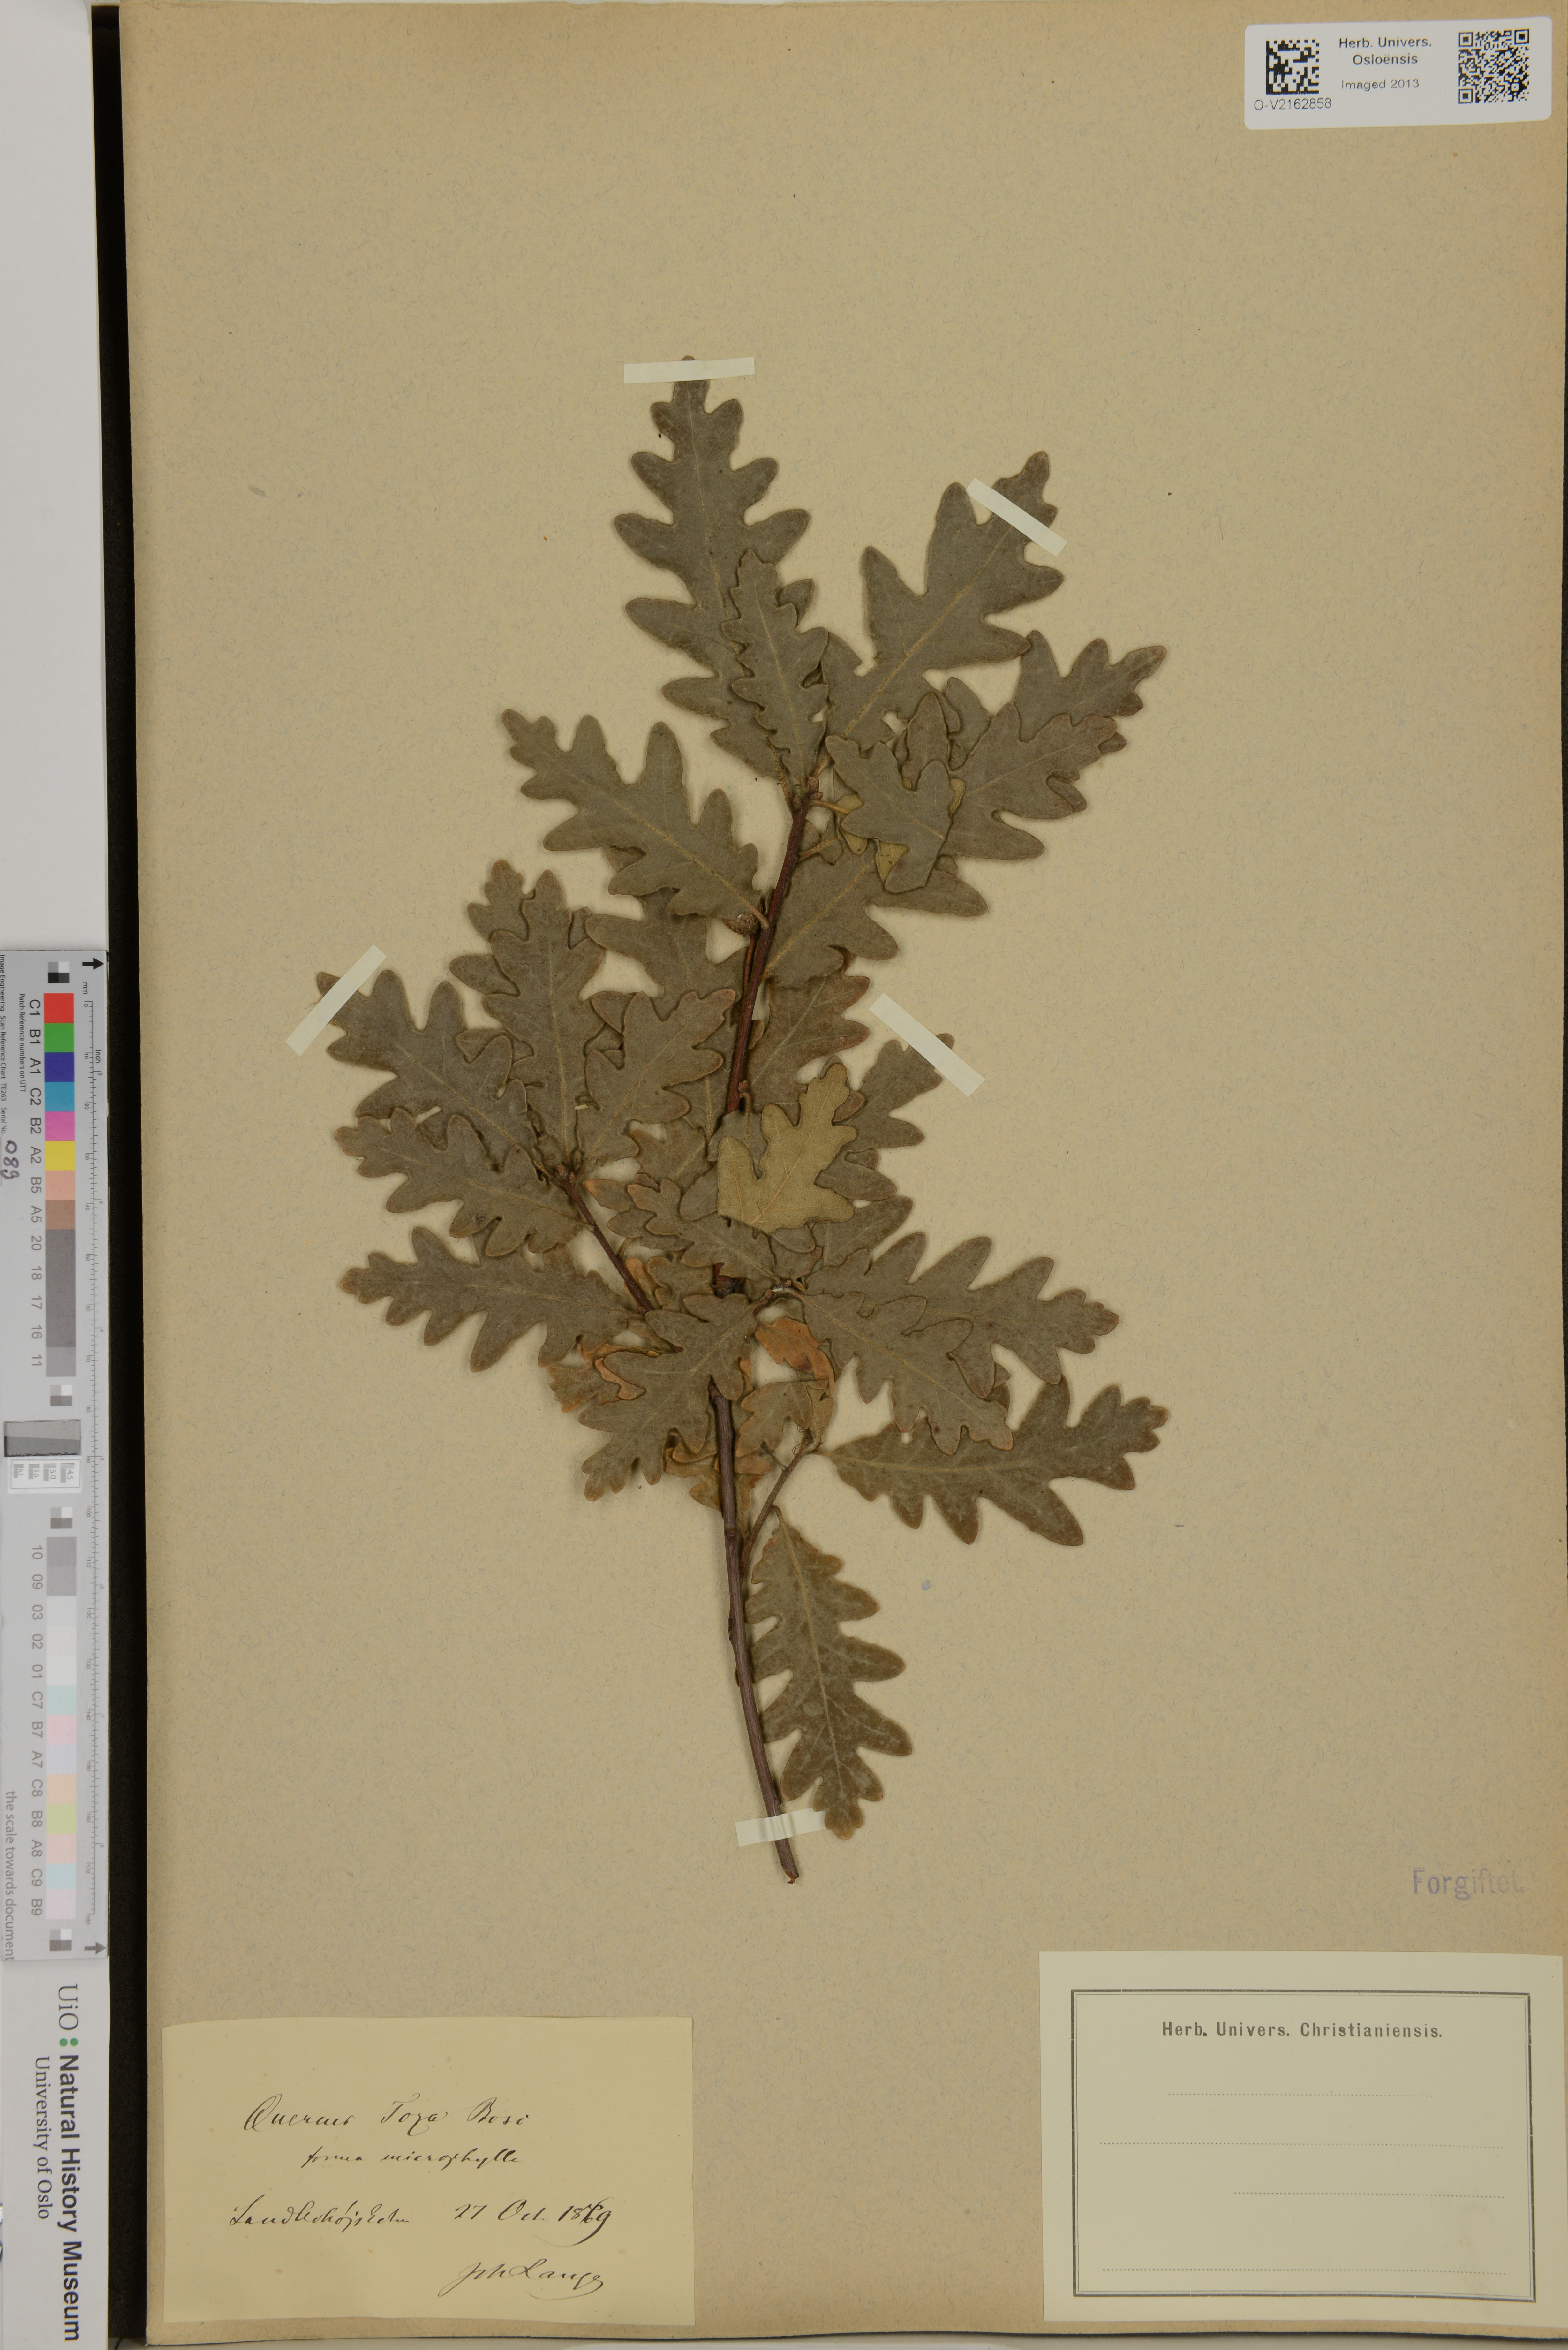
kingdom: Plantae
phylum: Tracheophyta
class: Magnoliopsida
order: Fagales
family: Fagaceae
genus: Quercus
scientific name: Quercus toza
